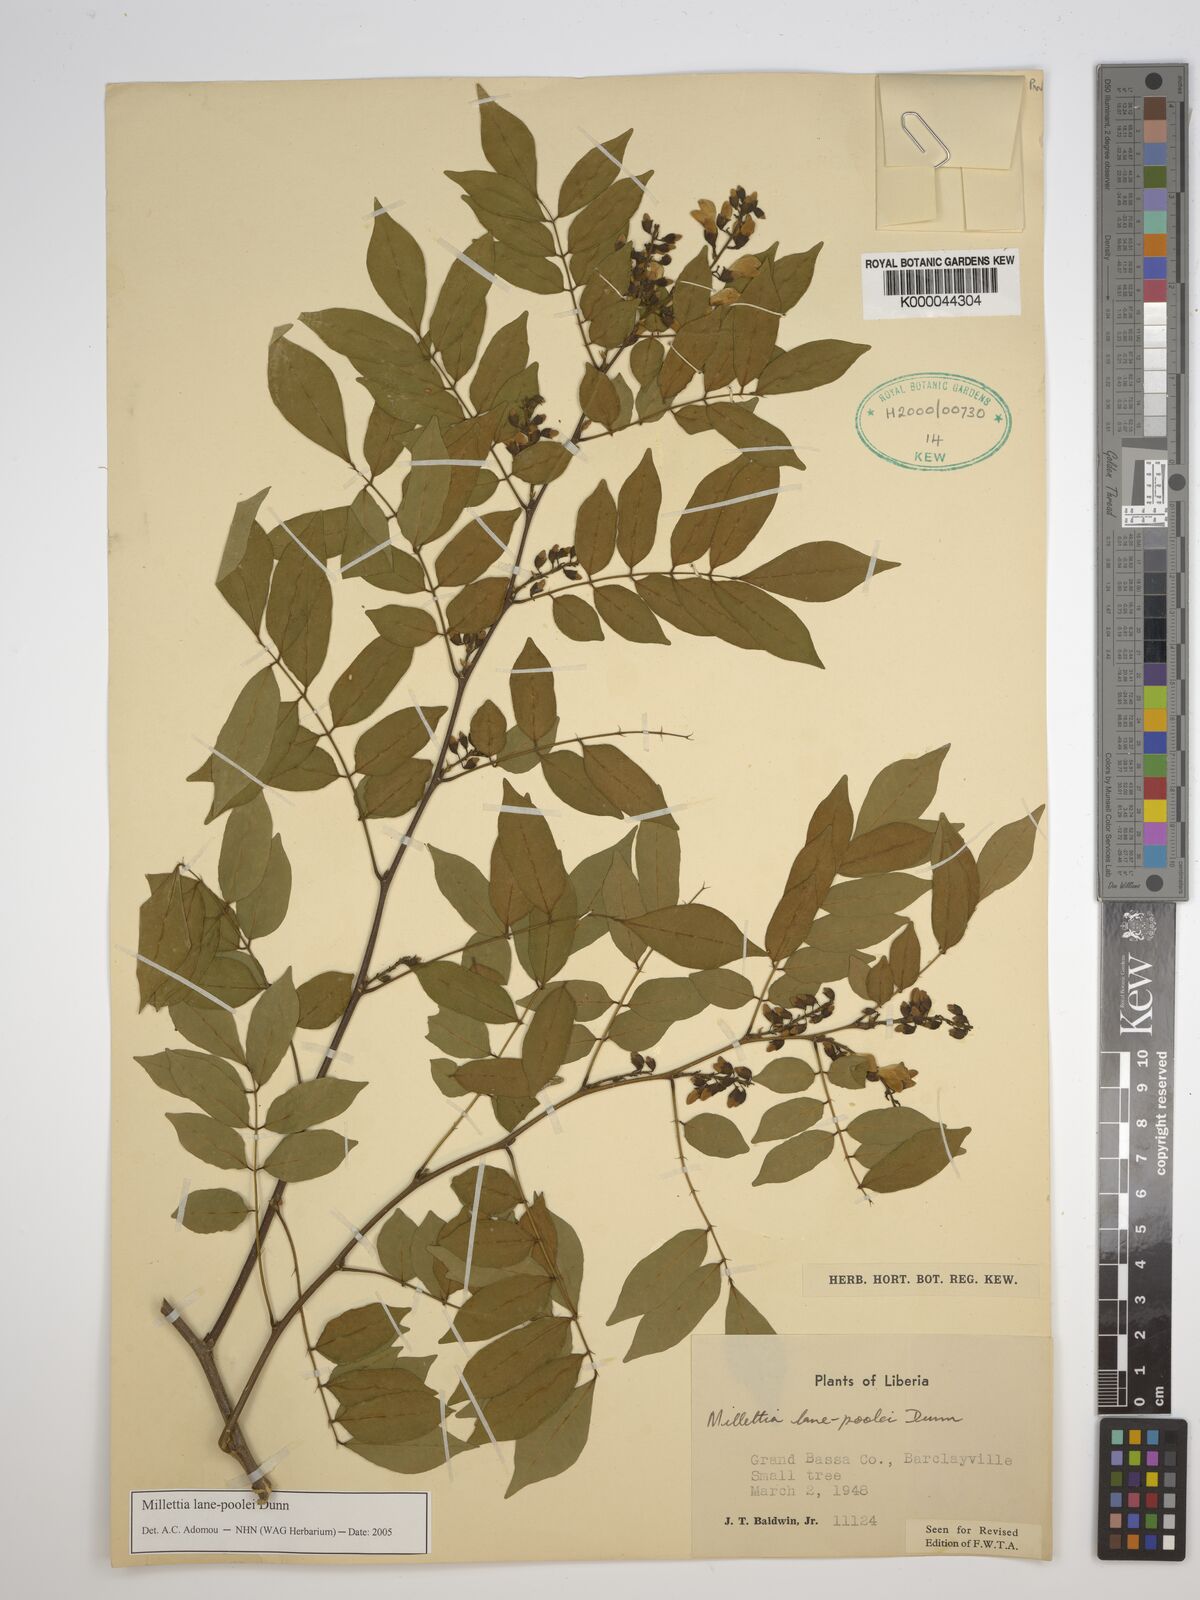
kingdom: Plantae
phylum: Tracheophyta
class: Magnoliopsida
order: Fabales
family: Fabaceae
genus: Millettia
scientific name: Millettia lane-poolei
